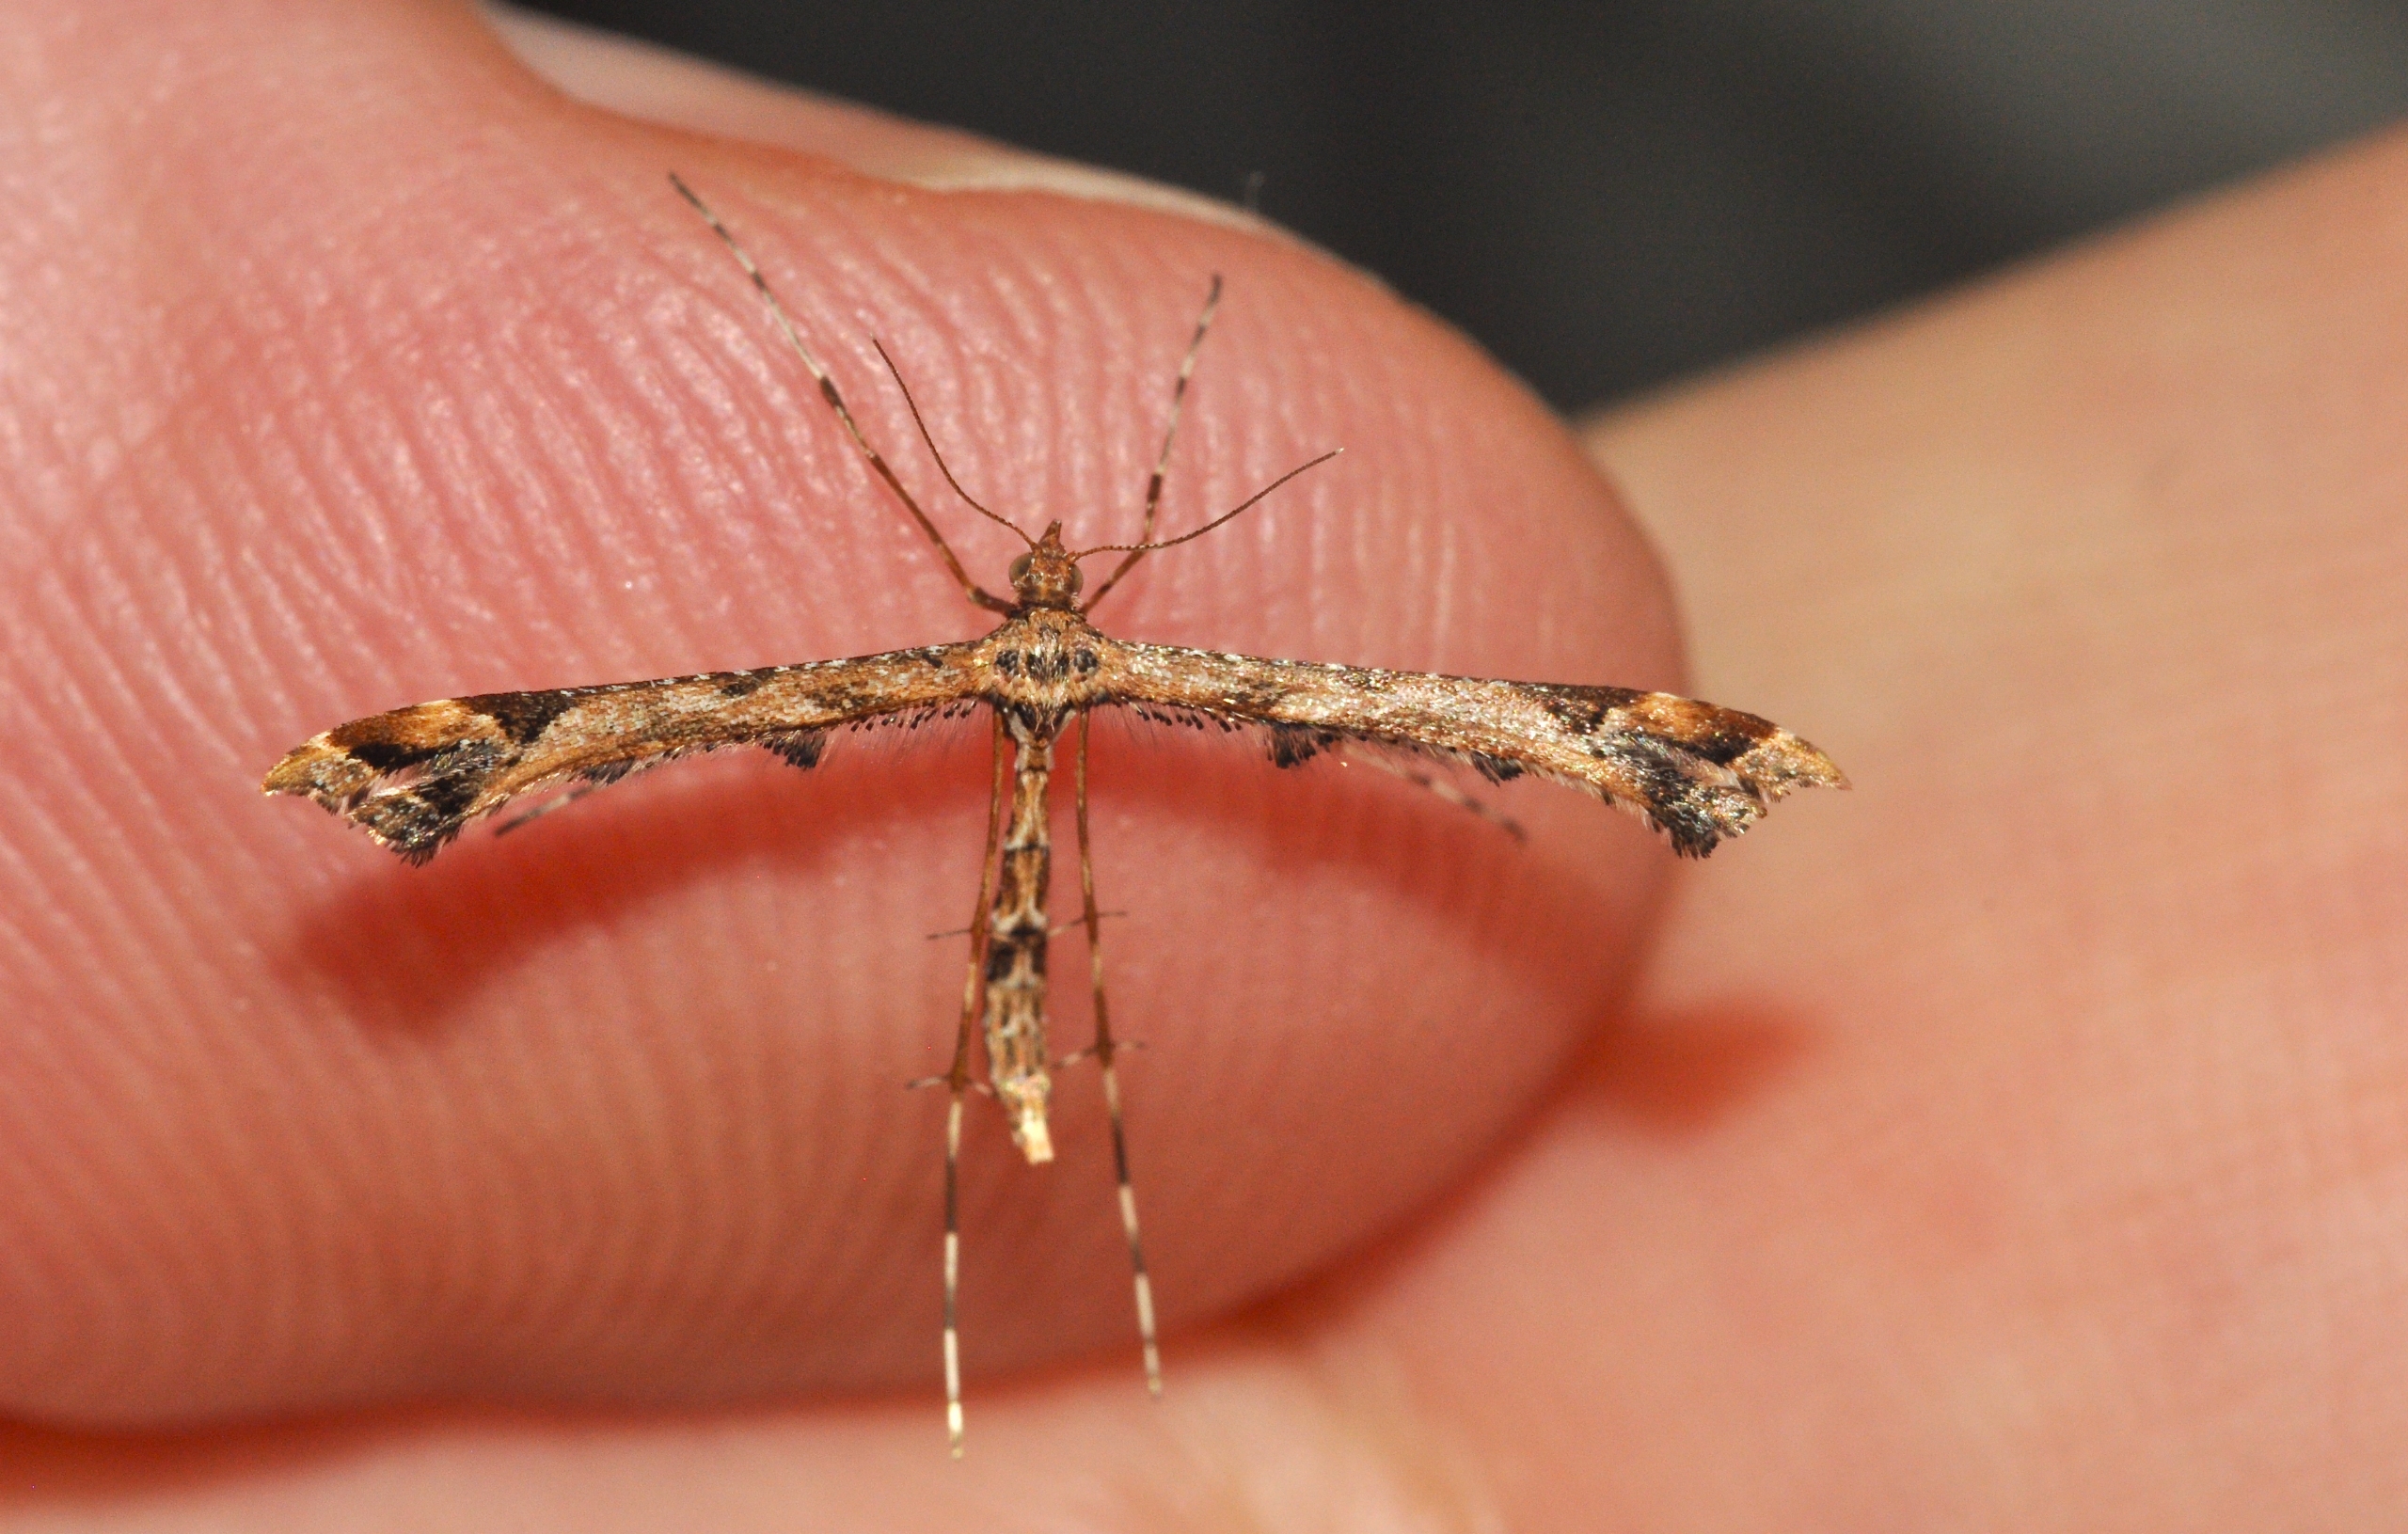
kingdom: Animalia
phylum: Arthropoda
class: Insecta
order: Lepidoptera
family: Pterophoridae
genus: Amblyptilia
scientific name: Amblyptilia acanthadactyla
